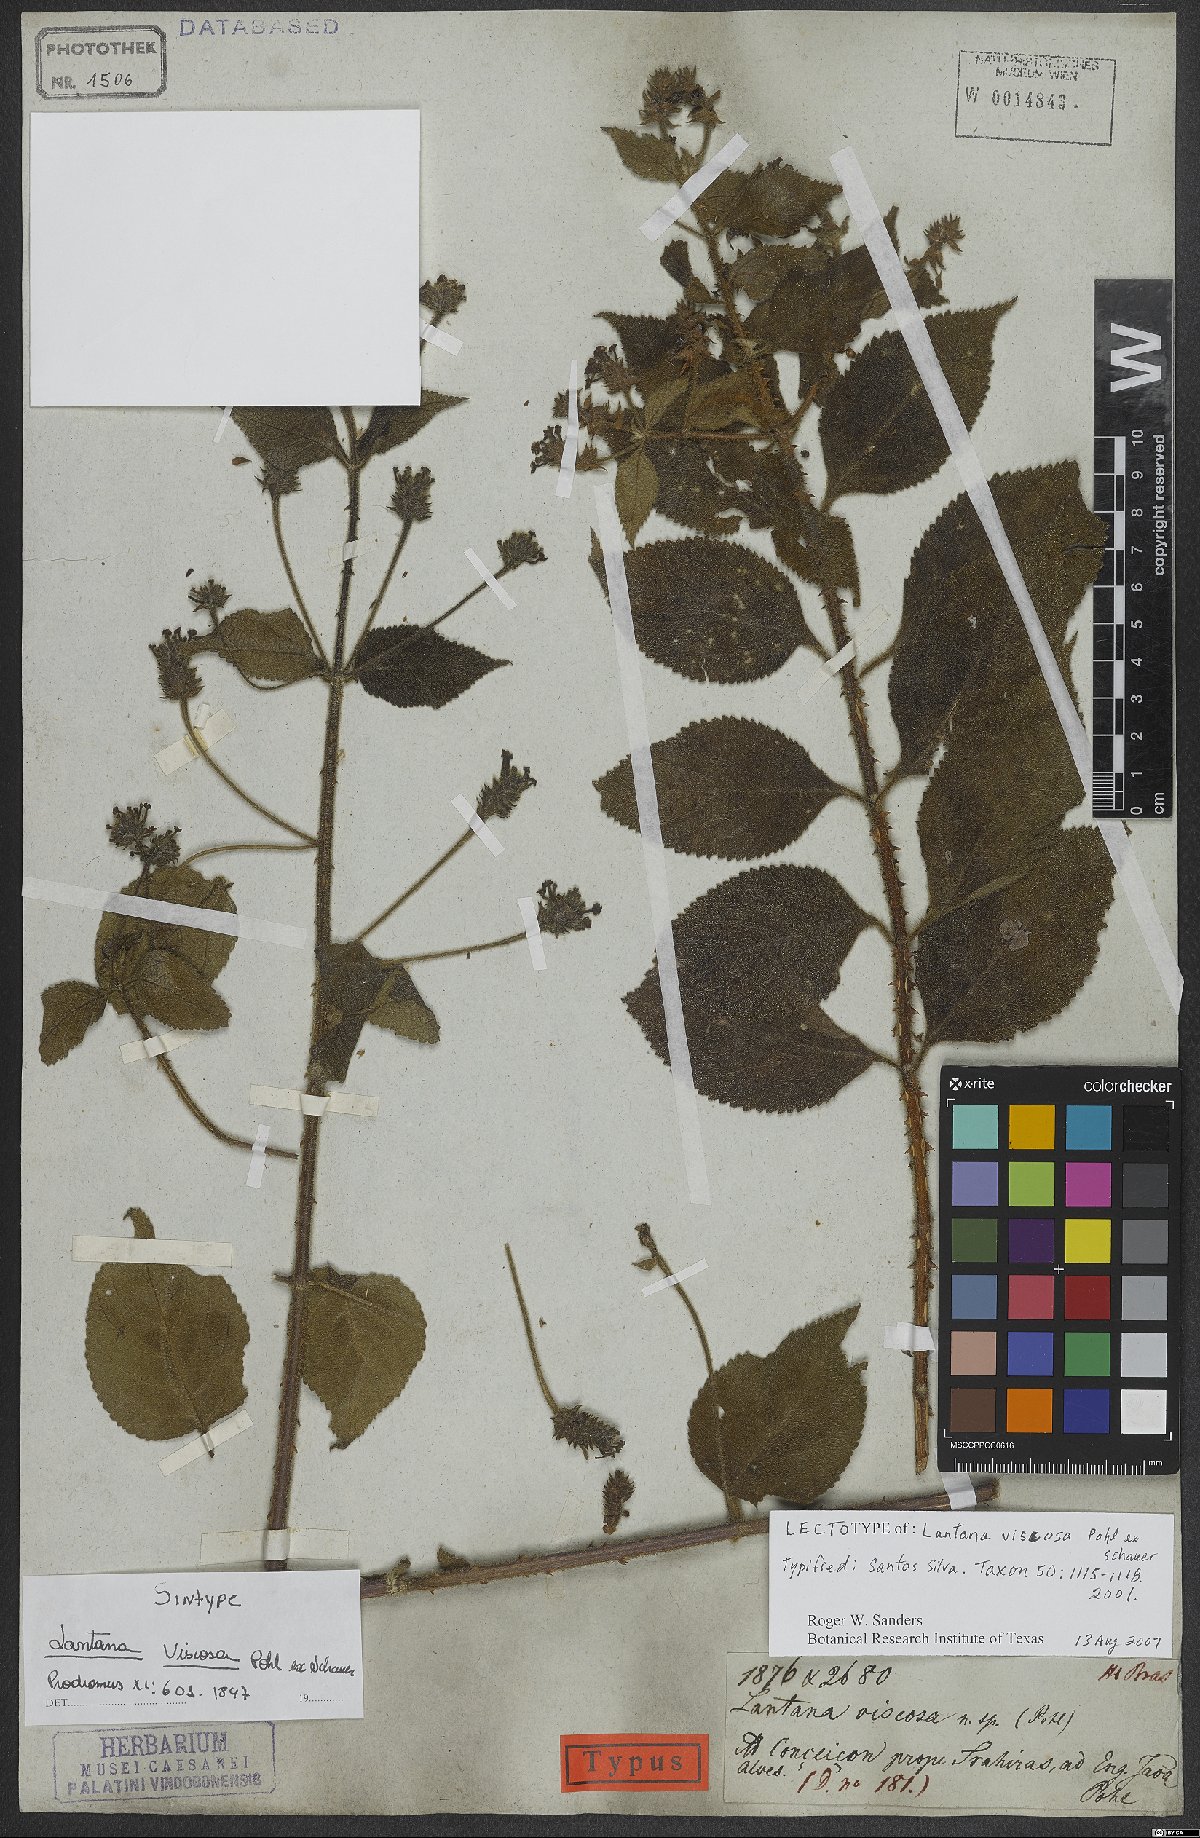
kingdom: Plantae
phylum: Tracheophyta
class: Magnoliopsida
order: Lamiales
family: Verbenaceae
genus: Lantana
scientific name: Lantana viscosa
